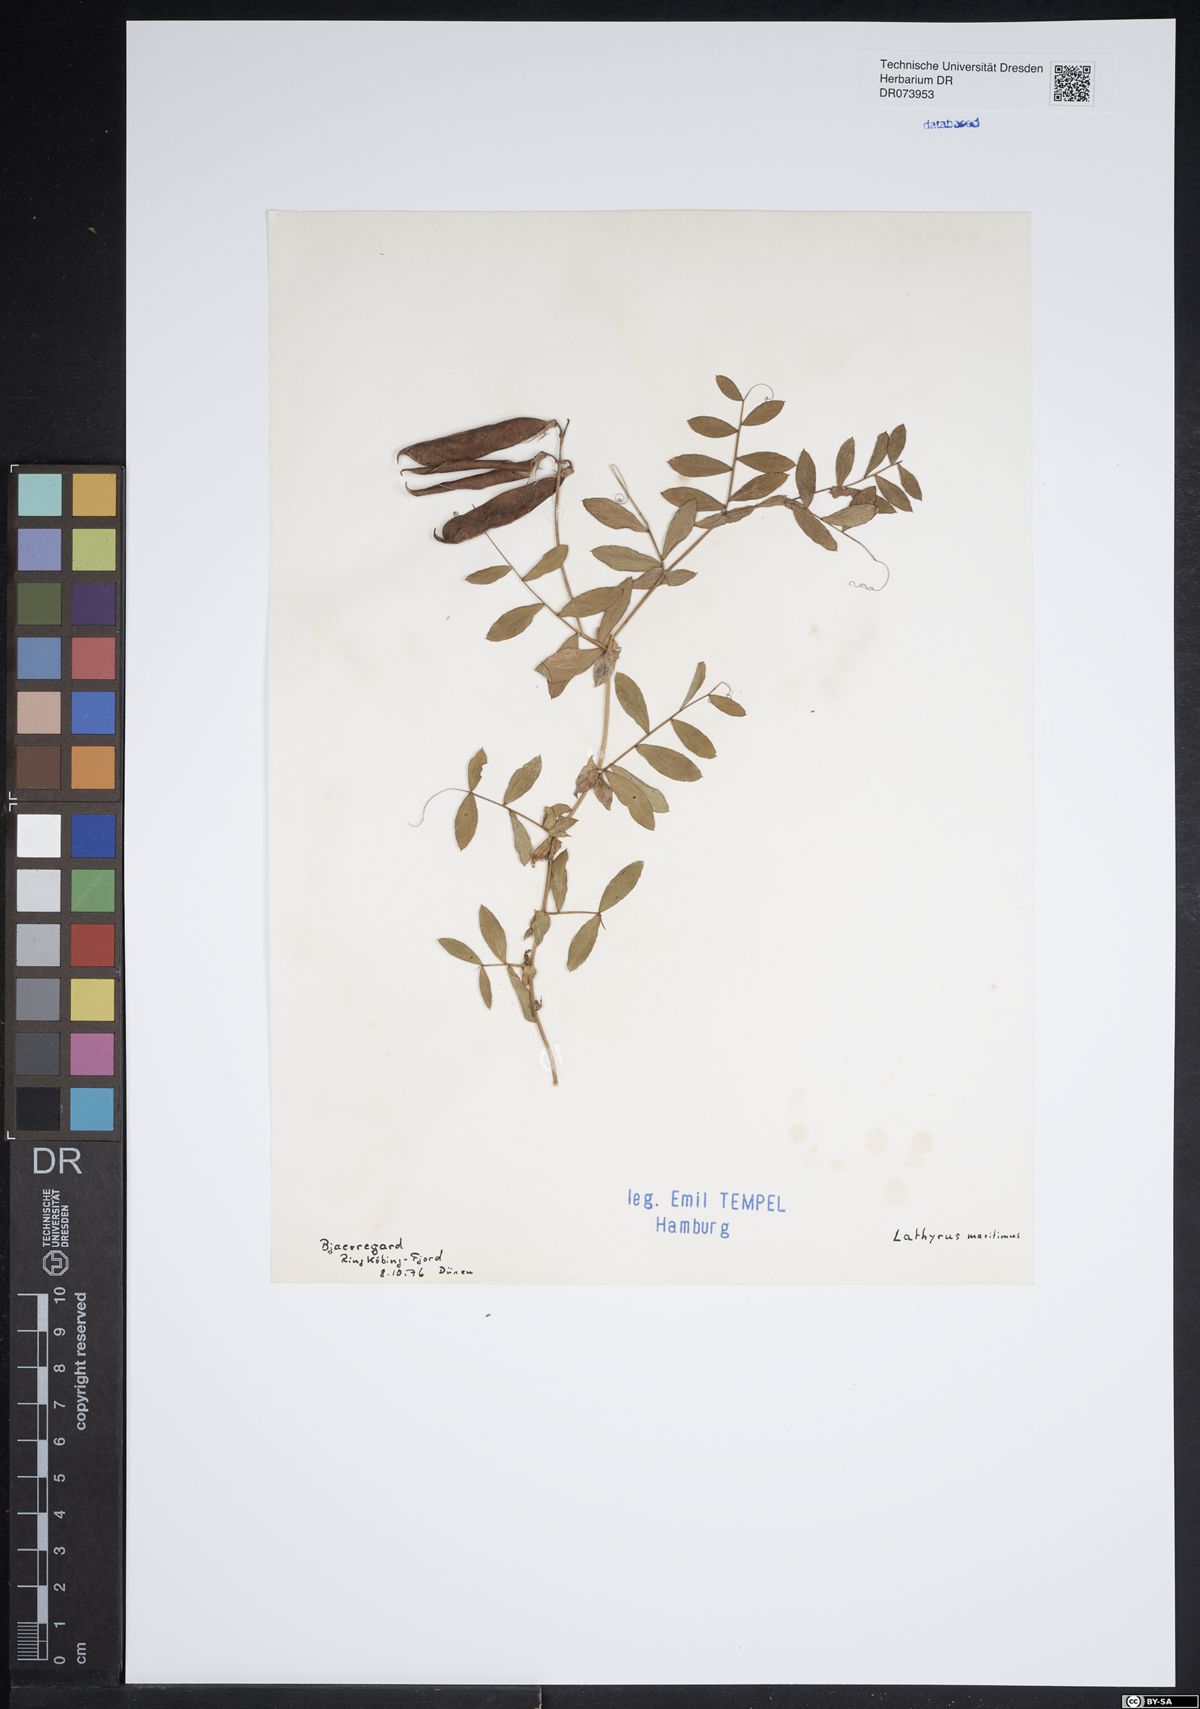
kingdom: Plantae
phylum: Tracheophyta
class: Magnoliopsida
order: Fabales
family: Fabaceae
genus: Lathyrus
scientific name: Lathyrus japonicus
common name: Sea pea
